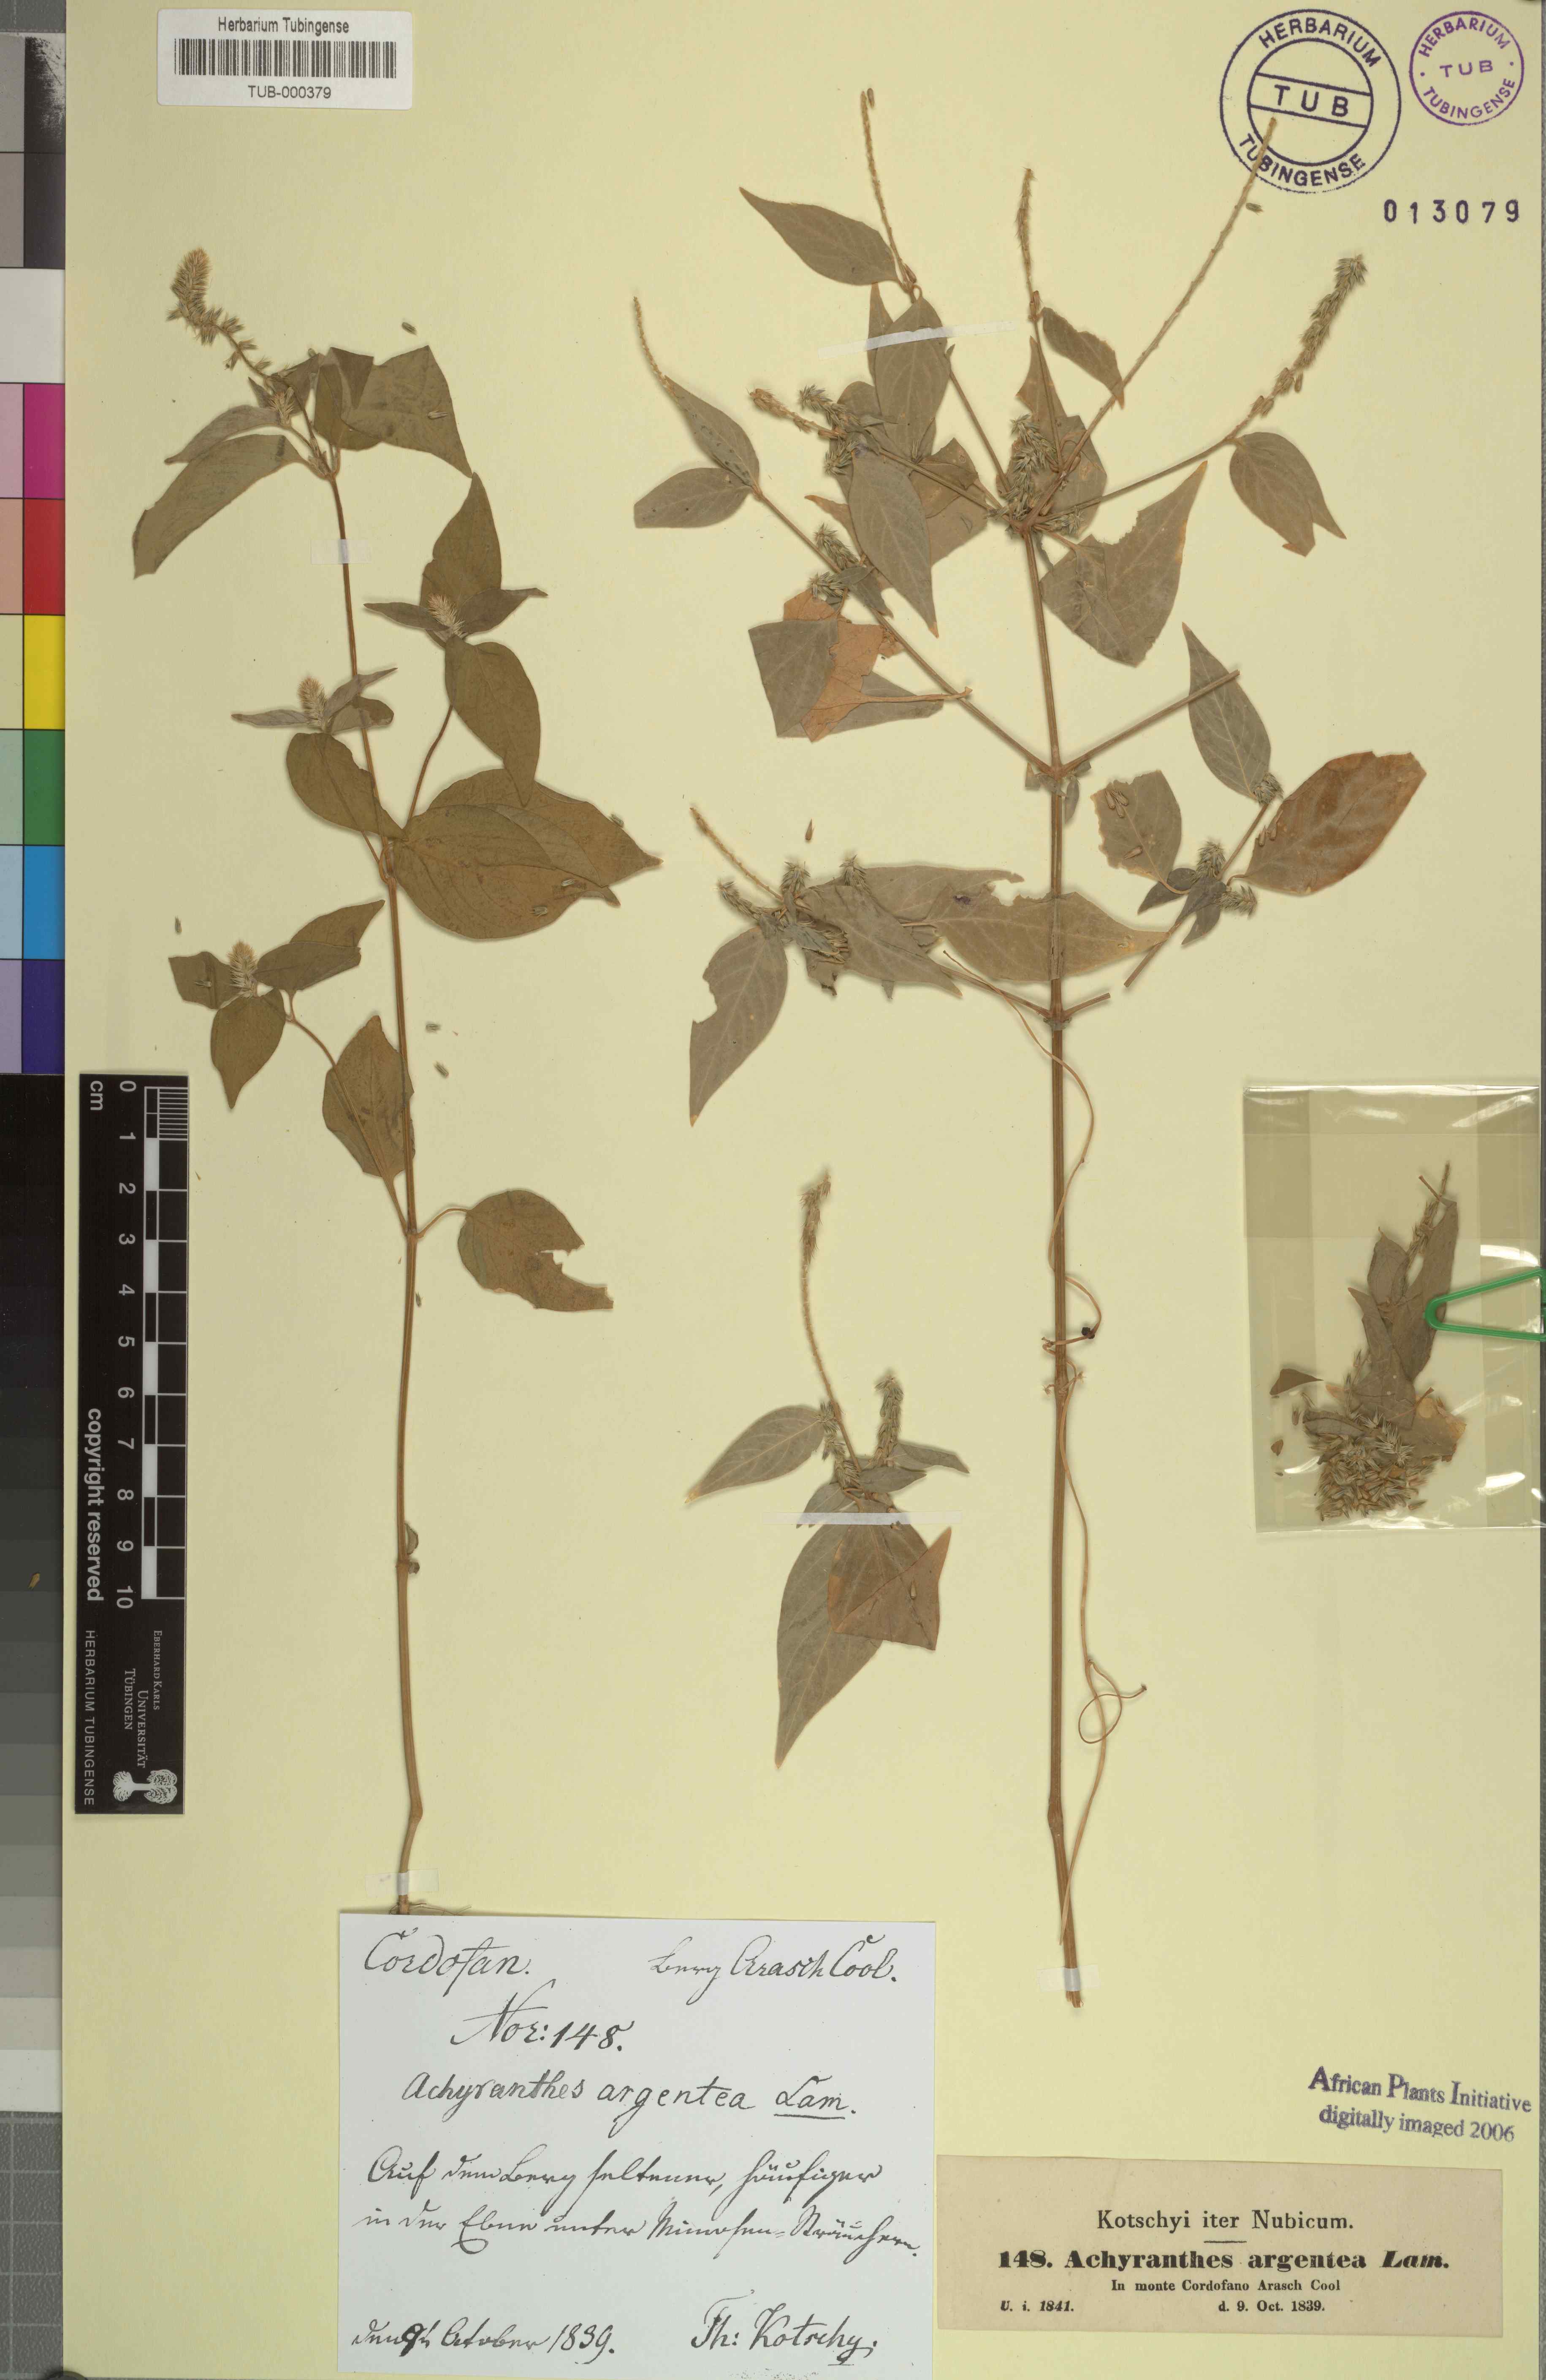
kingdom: Plantae
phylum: Tracheophyta
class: Magnoliopsida
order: Caryophyllales
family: Amaranthaceae
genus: Achyranthes
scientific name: Achyranthes aspera
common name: Devil's horsewhip
